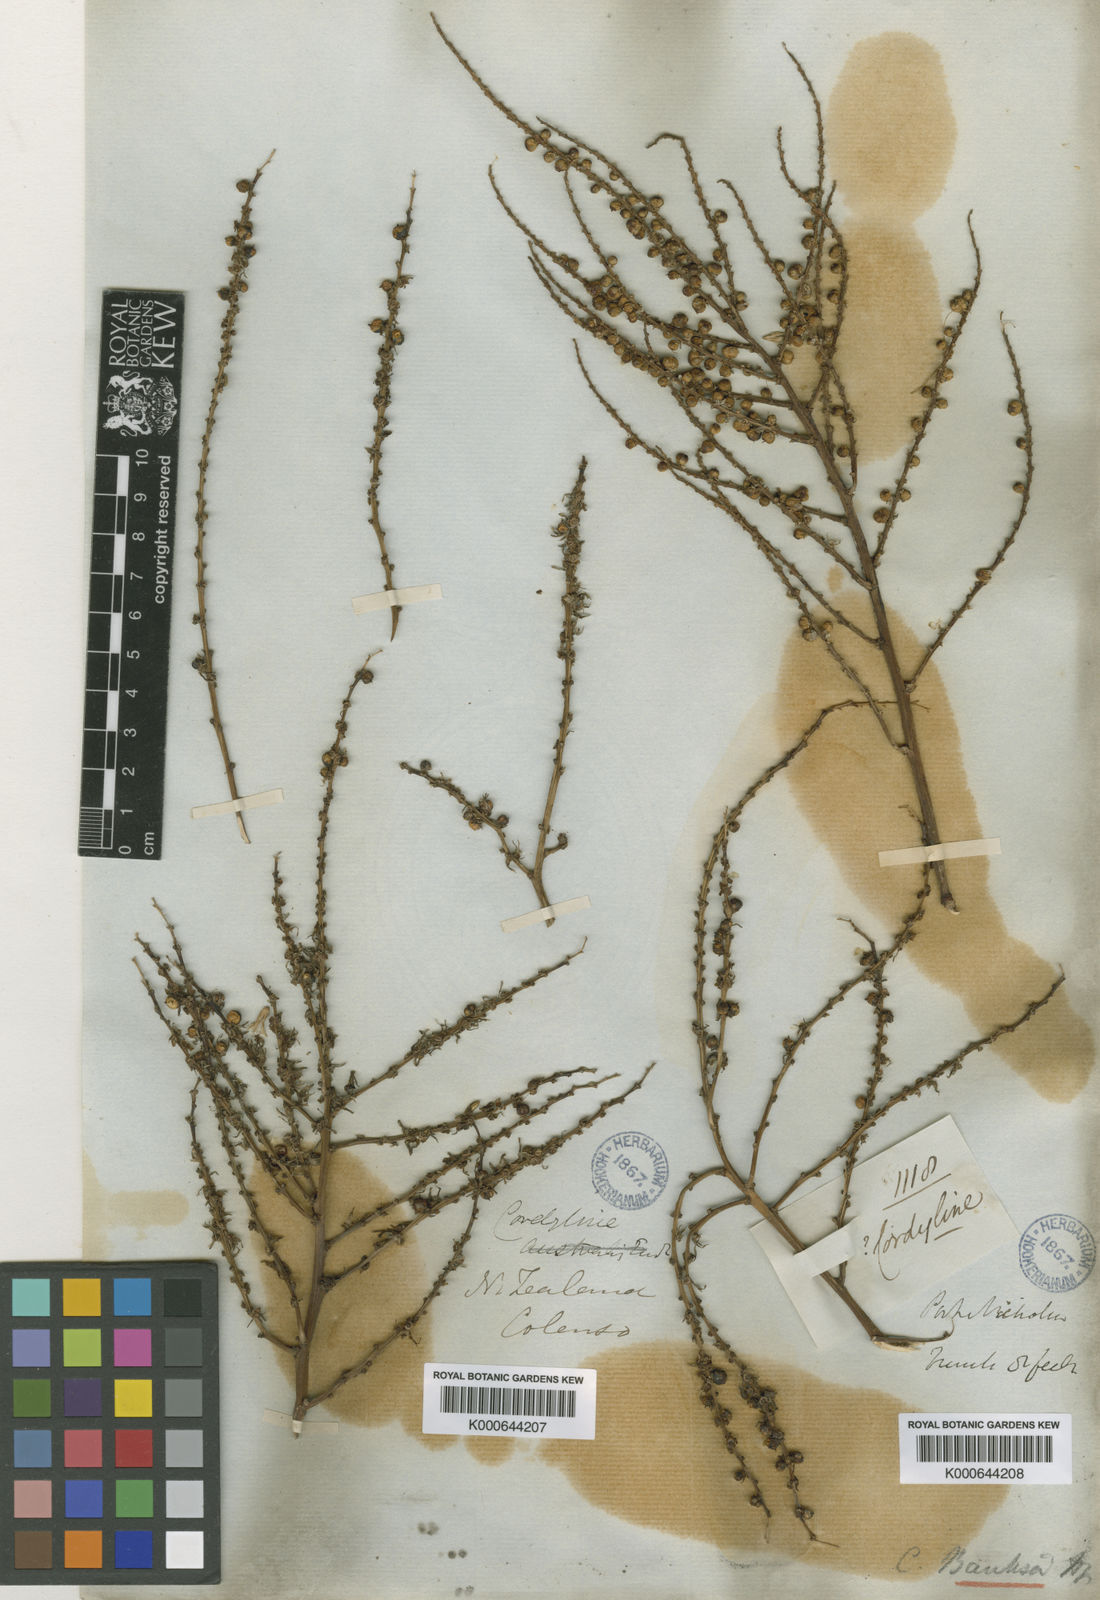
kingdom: Plantae
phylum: Tracheophyta
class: Liliopsida
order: Asparagales
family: Asparagaceae
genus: Cordyline
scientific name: Cordyline banksii
